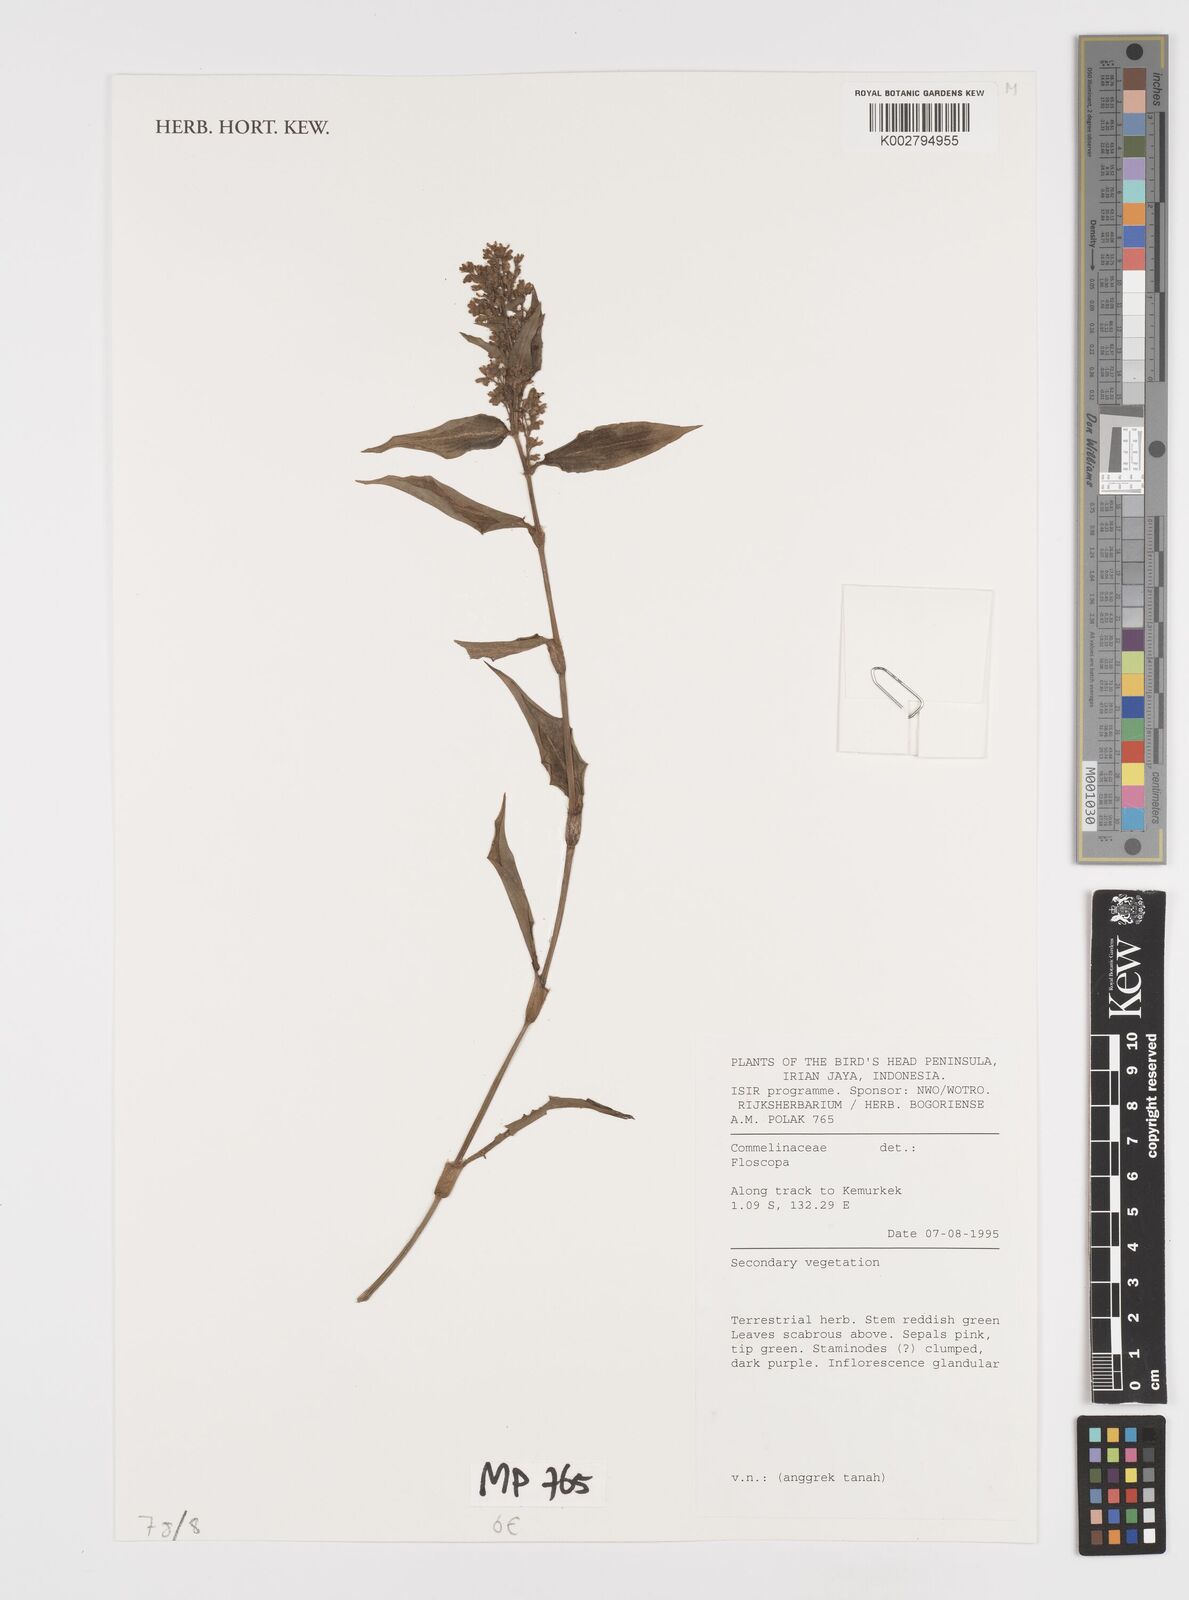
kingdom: Plantae
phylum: Tracheophyta
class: Liliopsida
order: Commelinales
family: Commelinaceae
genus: Floscopa
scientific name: Floscopa
